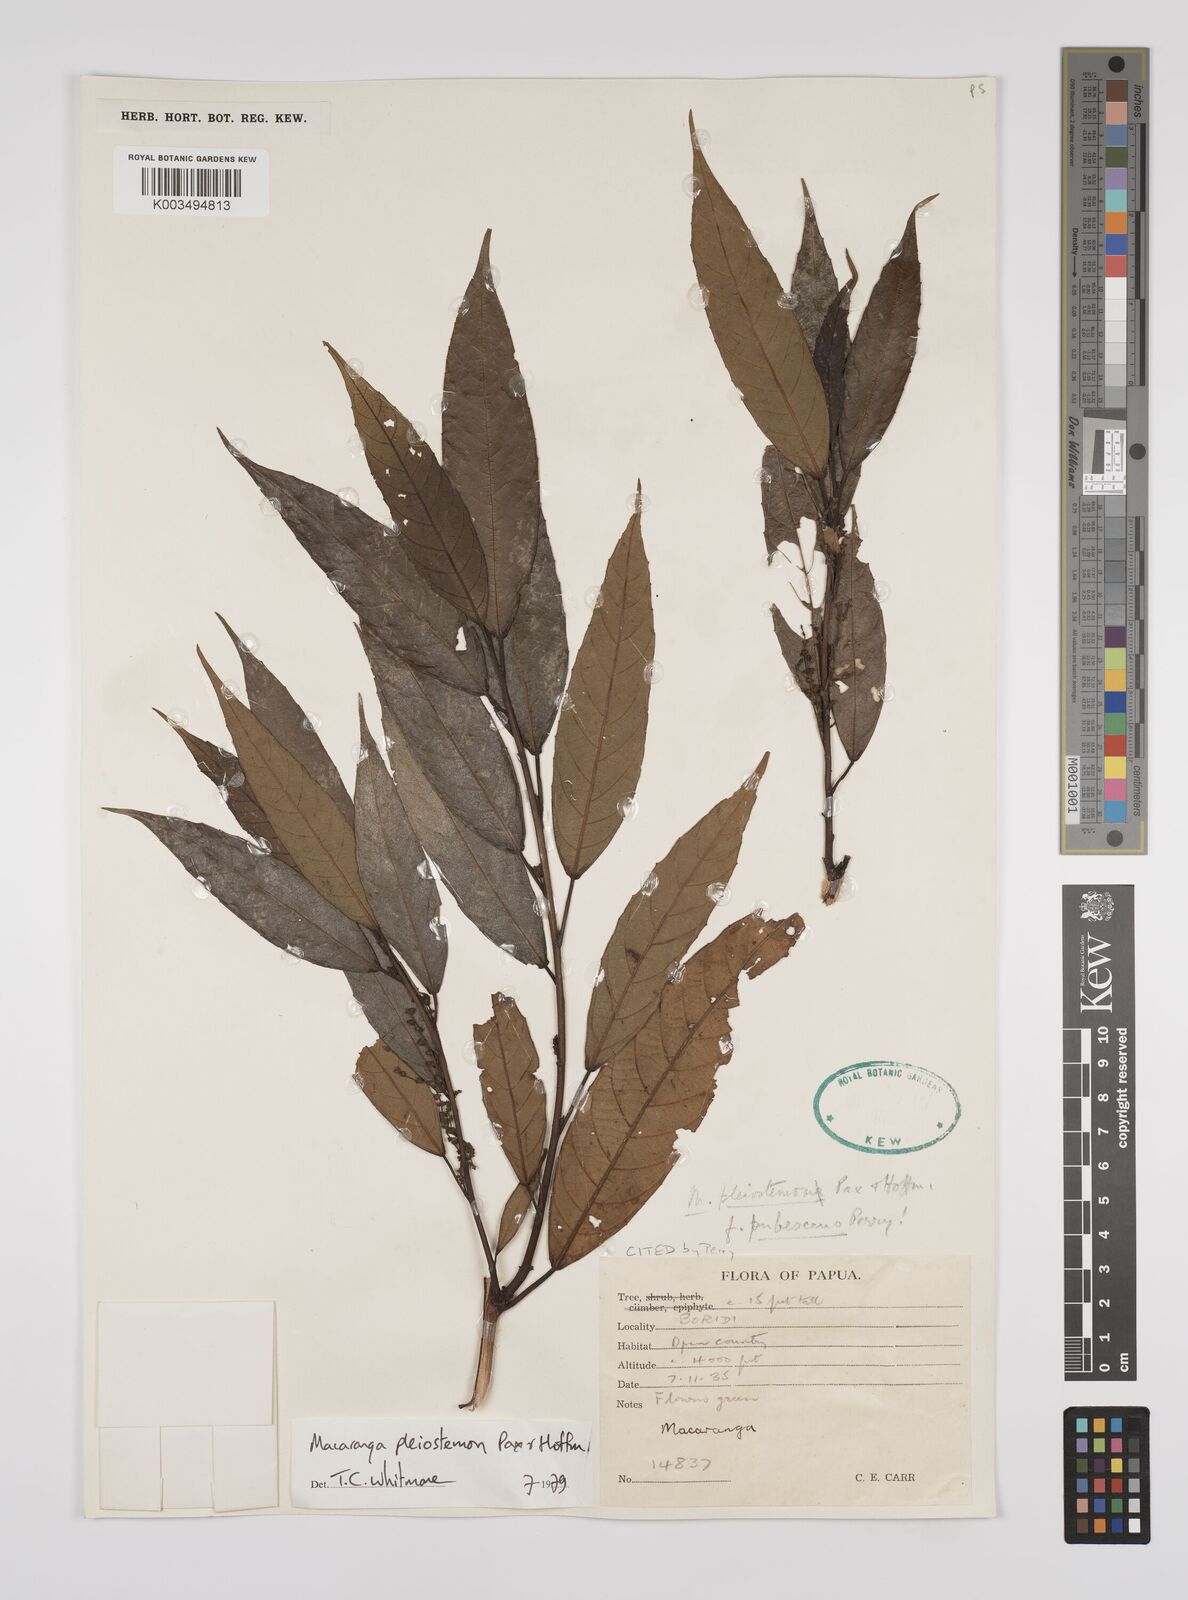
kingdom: Plantae
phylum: Tracheophyta
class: Magnoliopsida
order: Malpighiales
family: Euphorbiaceae
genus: Macaranga
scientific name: Macaranga pleiostemon
